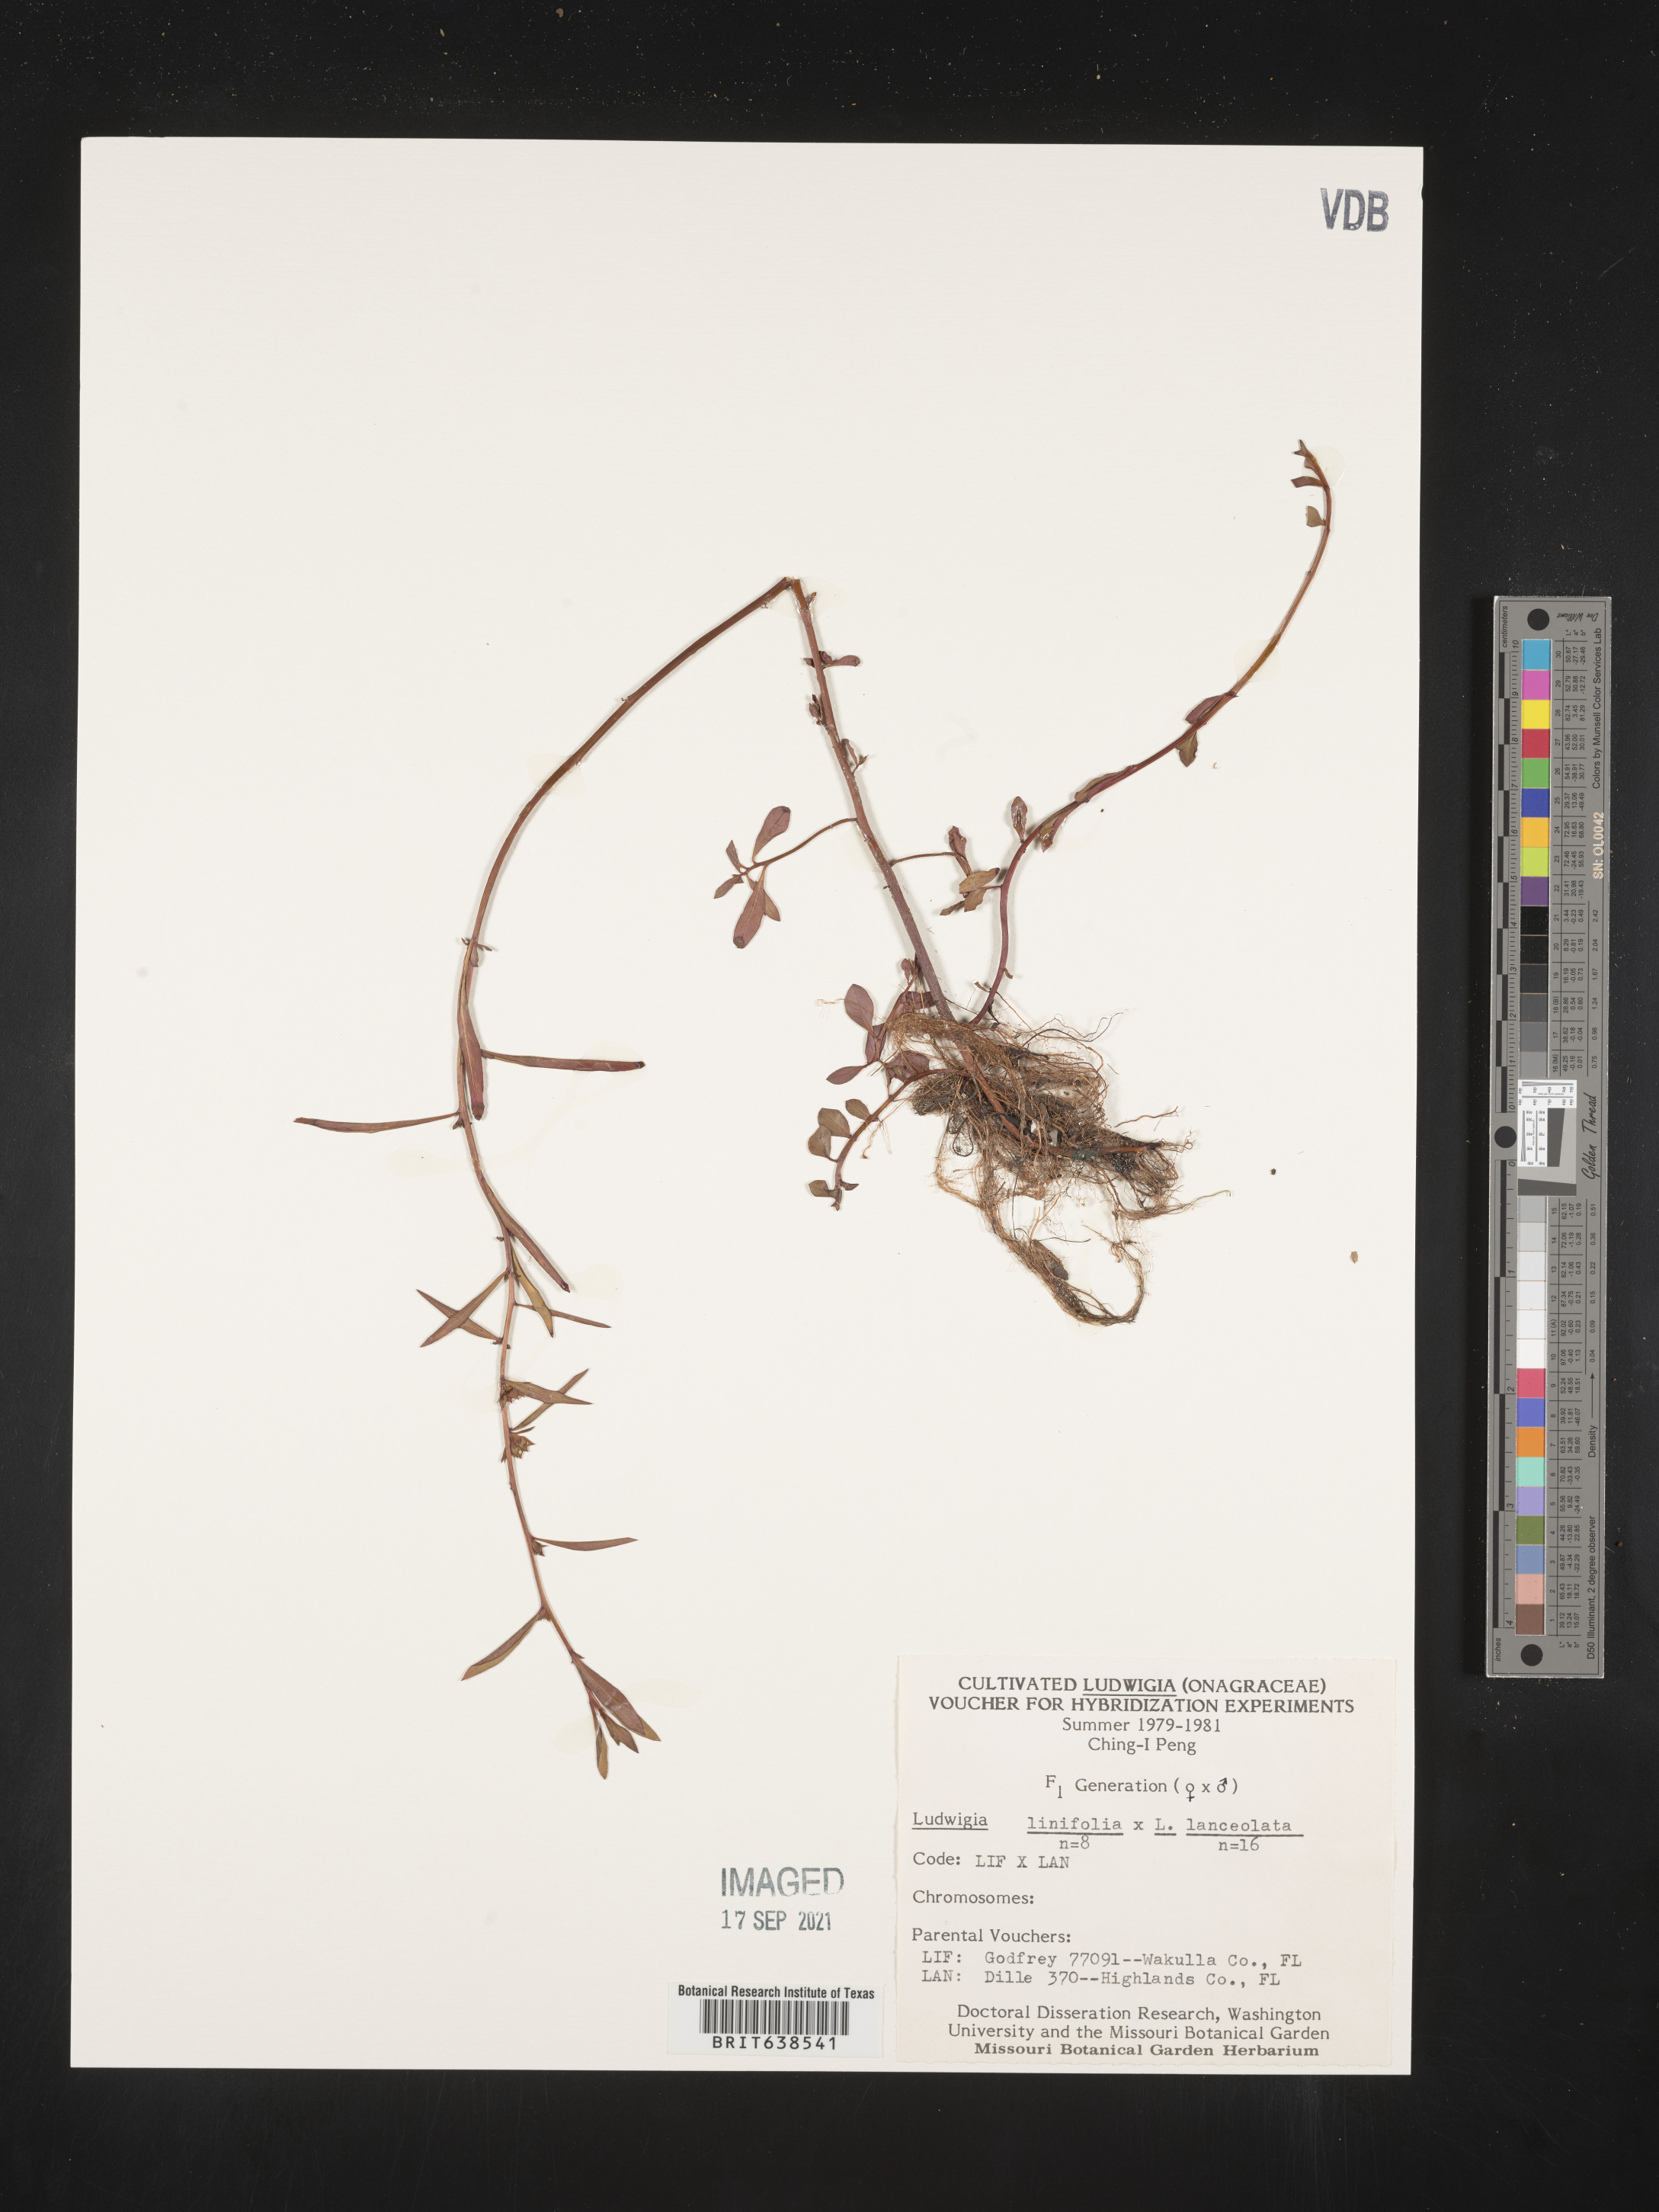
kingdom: Plantae
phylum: Tracheophyta
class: Magnoliopsida
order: Myrtales
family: Onagraceae
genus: Ludwigia
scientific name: Ludwigia
